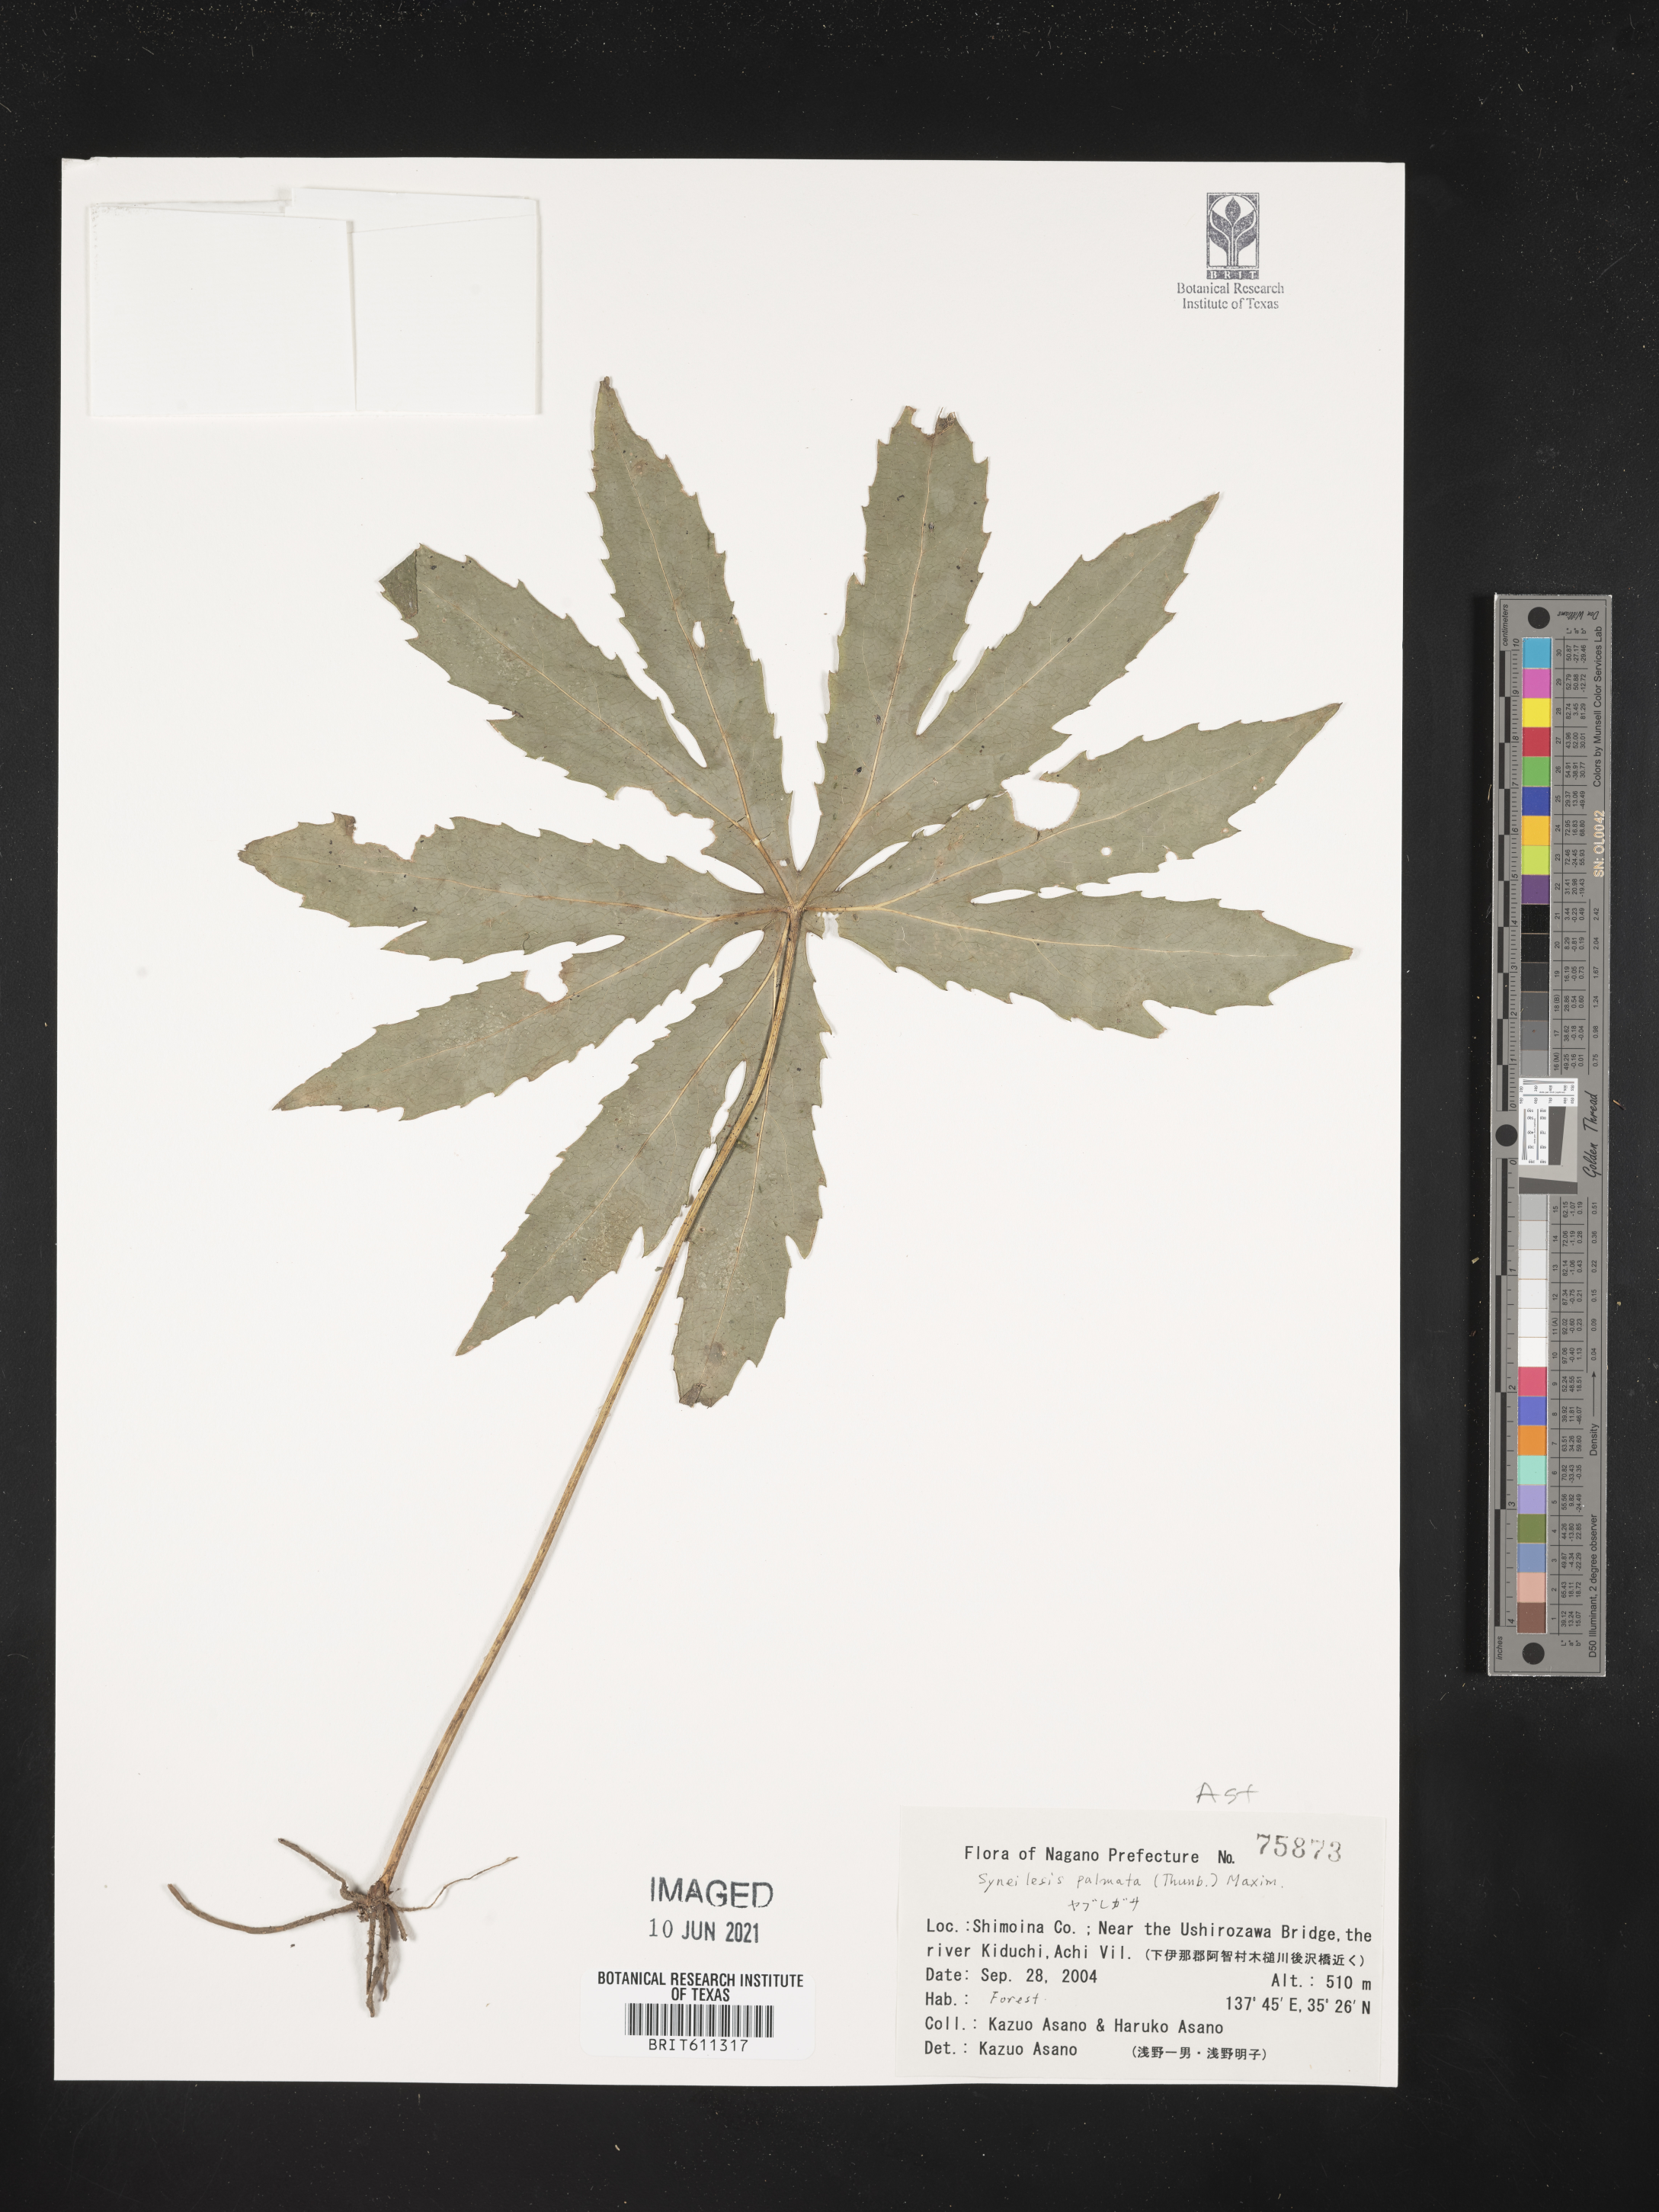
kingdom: Plantae
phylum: Tracheophyta
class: Magnoliopsida
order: Asterales
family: Asteraceae
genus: Syneilesis
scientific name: Syneilesis palmata
